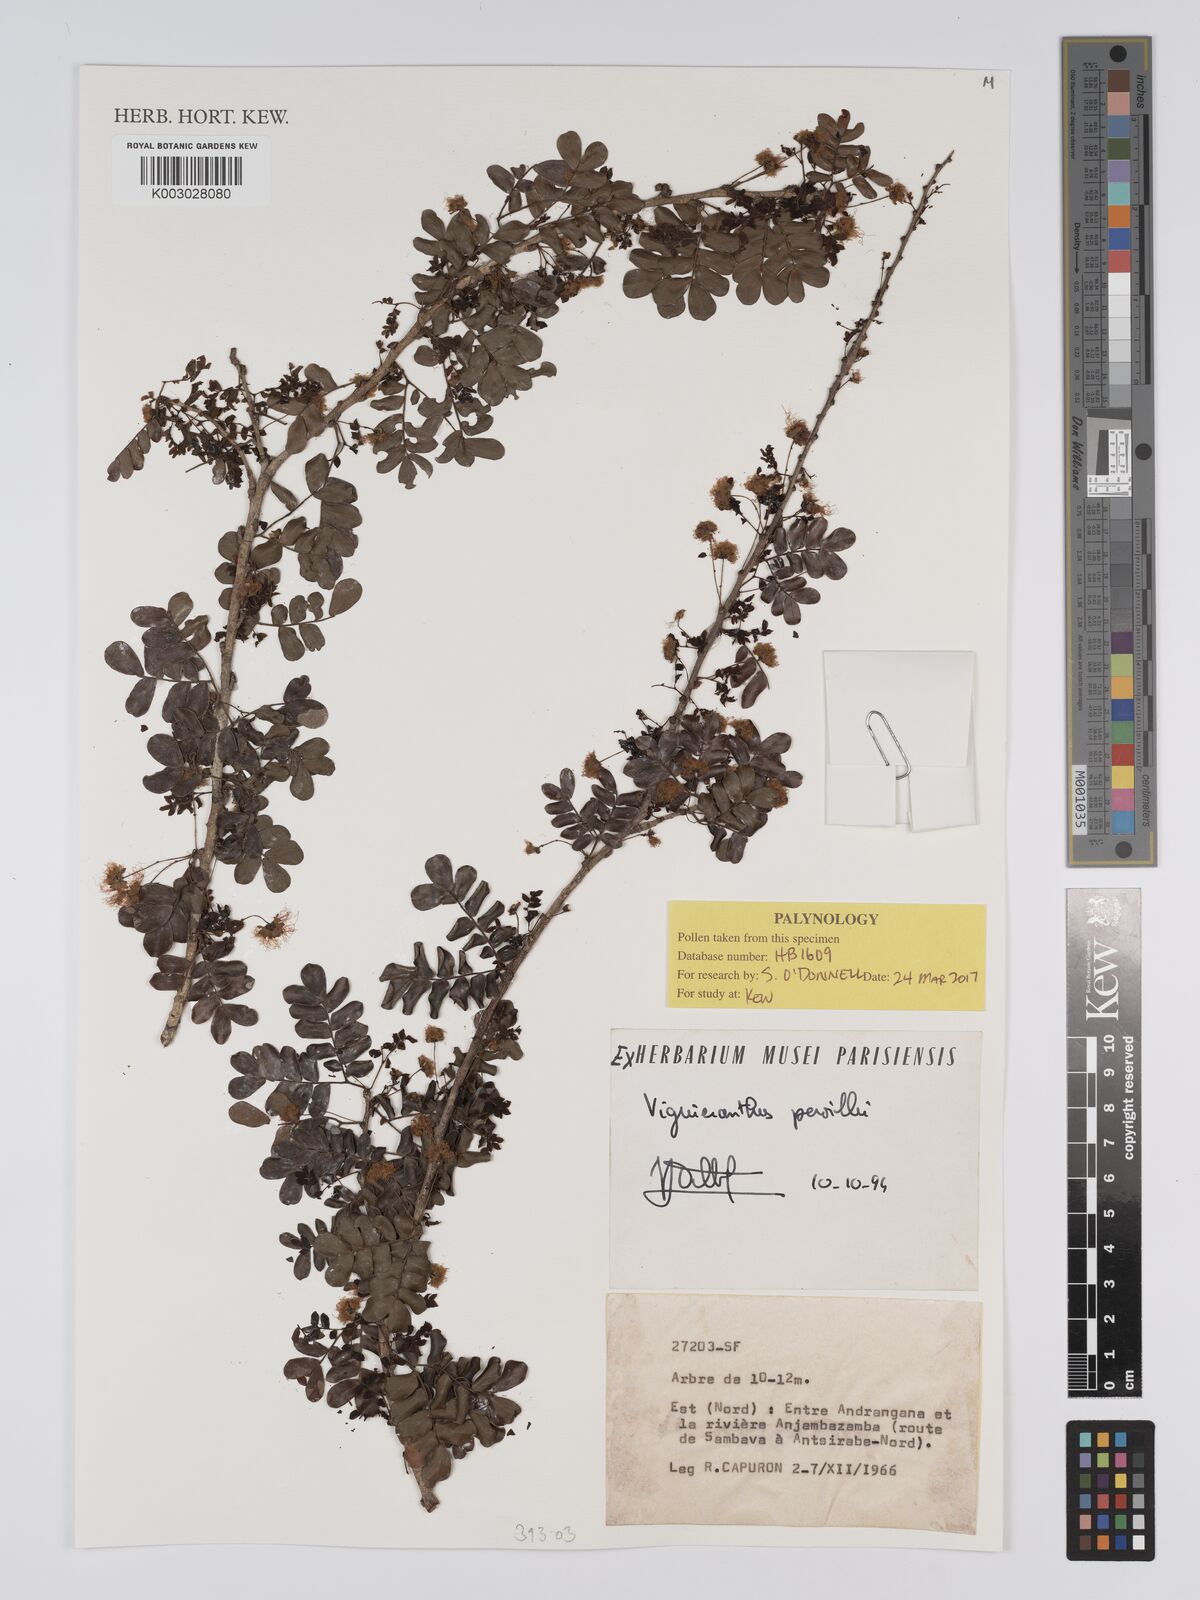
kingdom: Plantae
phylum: Tracheophyta
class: Magnoliopsida
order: Fabales
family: Fabaceae
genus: Viguieranthus
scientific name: Viguieranthus pervillei
